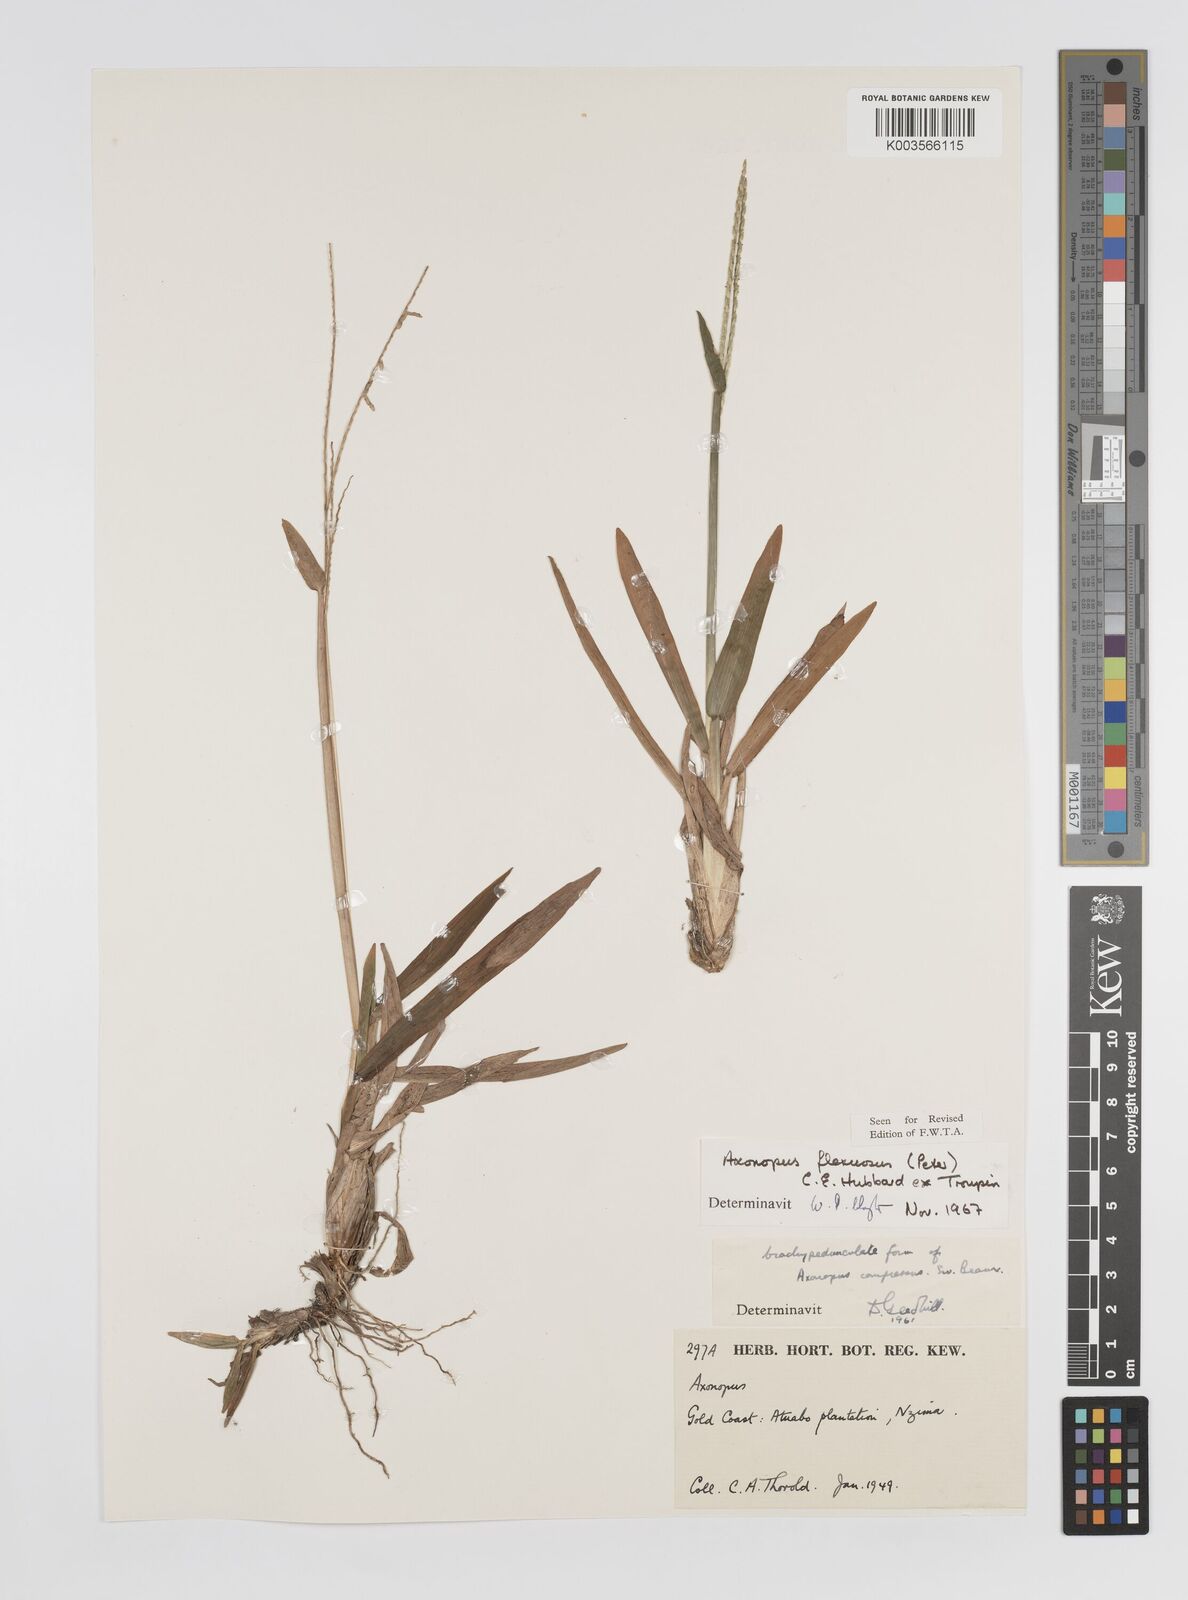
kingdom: Plantae
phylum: Tracheophyta
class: Liliopsida
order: Poales
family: Poaceae
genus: Axonopus
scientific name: Axonopus flexuosus
